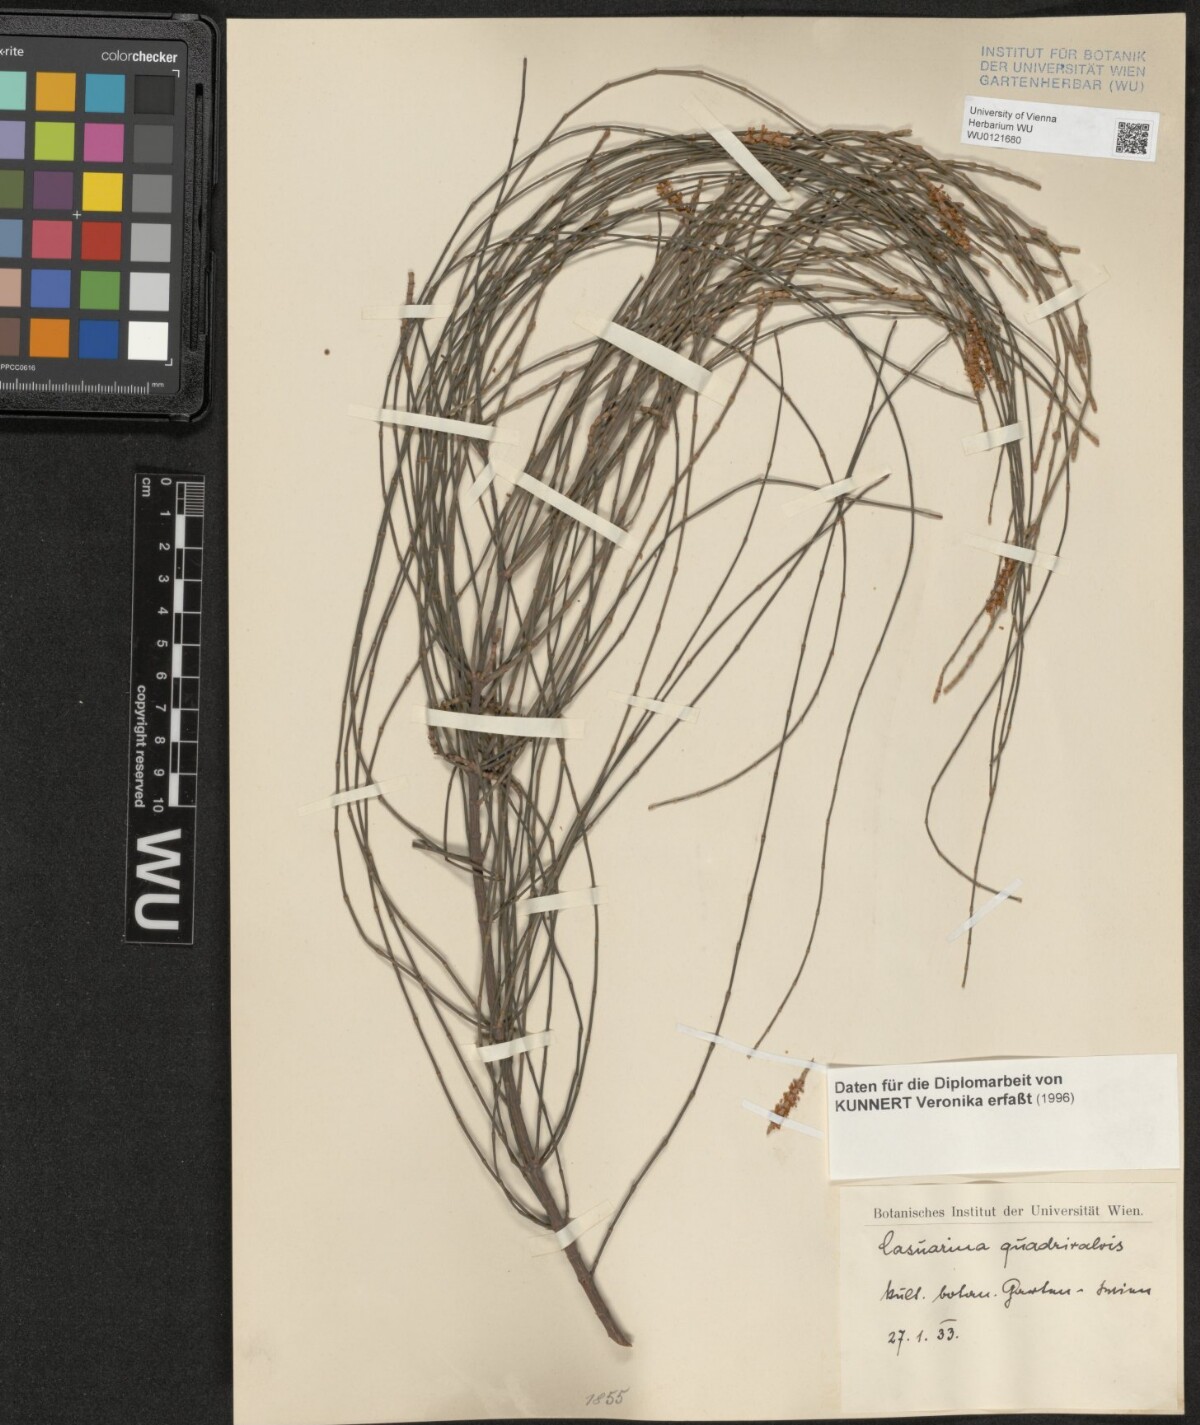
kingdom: Plantae
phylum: Tracheophyta
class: Magnoliopsida
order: Fagales
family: Casuarinaceae
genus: Allocasuarina
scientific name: Allocasuarina verticillata
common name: Drooping she-oak
